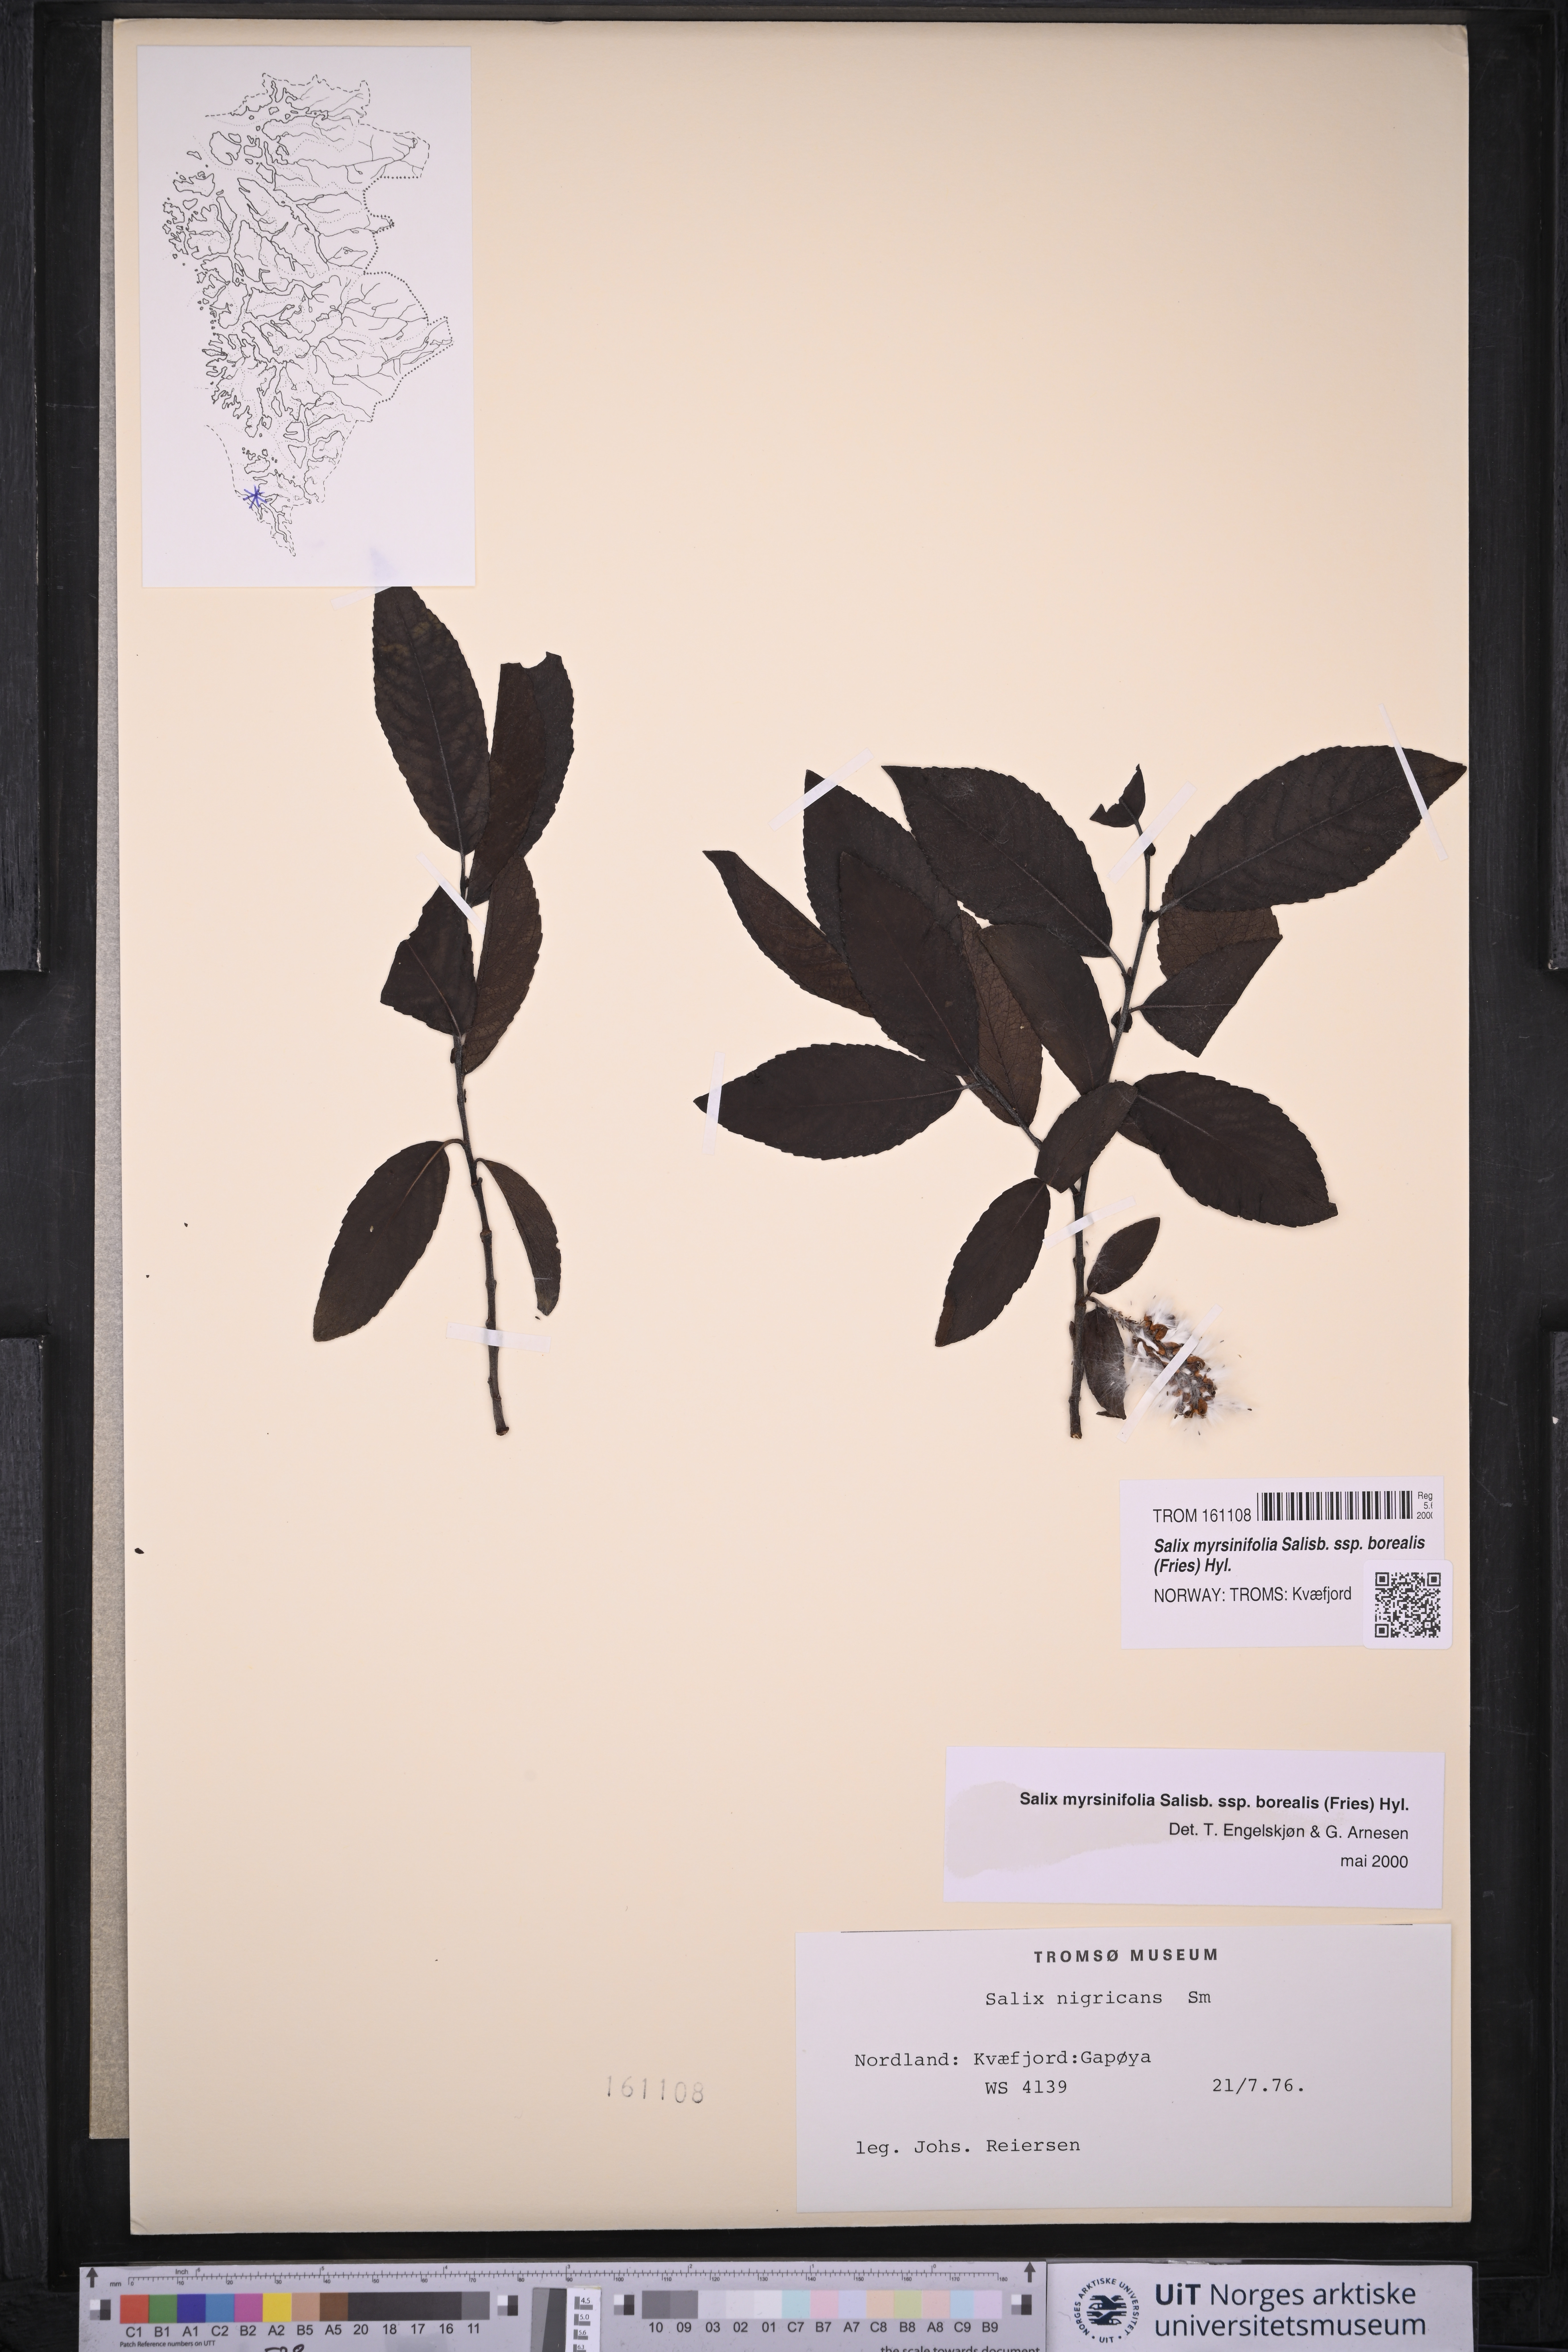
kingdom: Plantae
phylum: Tracheophyta
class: Magnoliopsida
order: Malpighiales
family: Salicaceae
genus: Salix
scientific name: Salix myrsinifolia
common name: Dark-leaved willow
